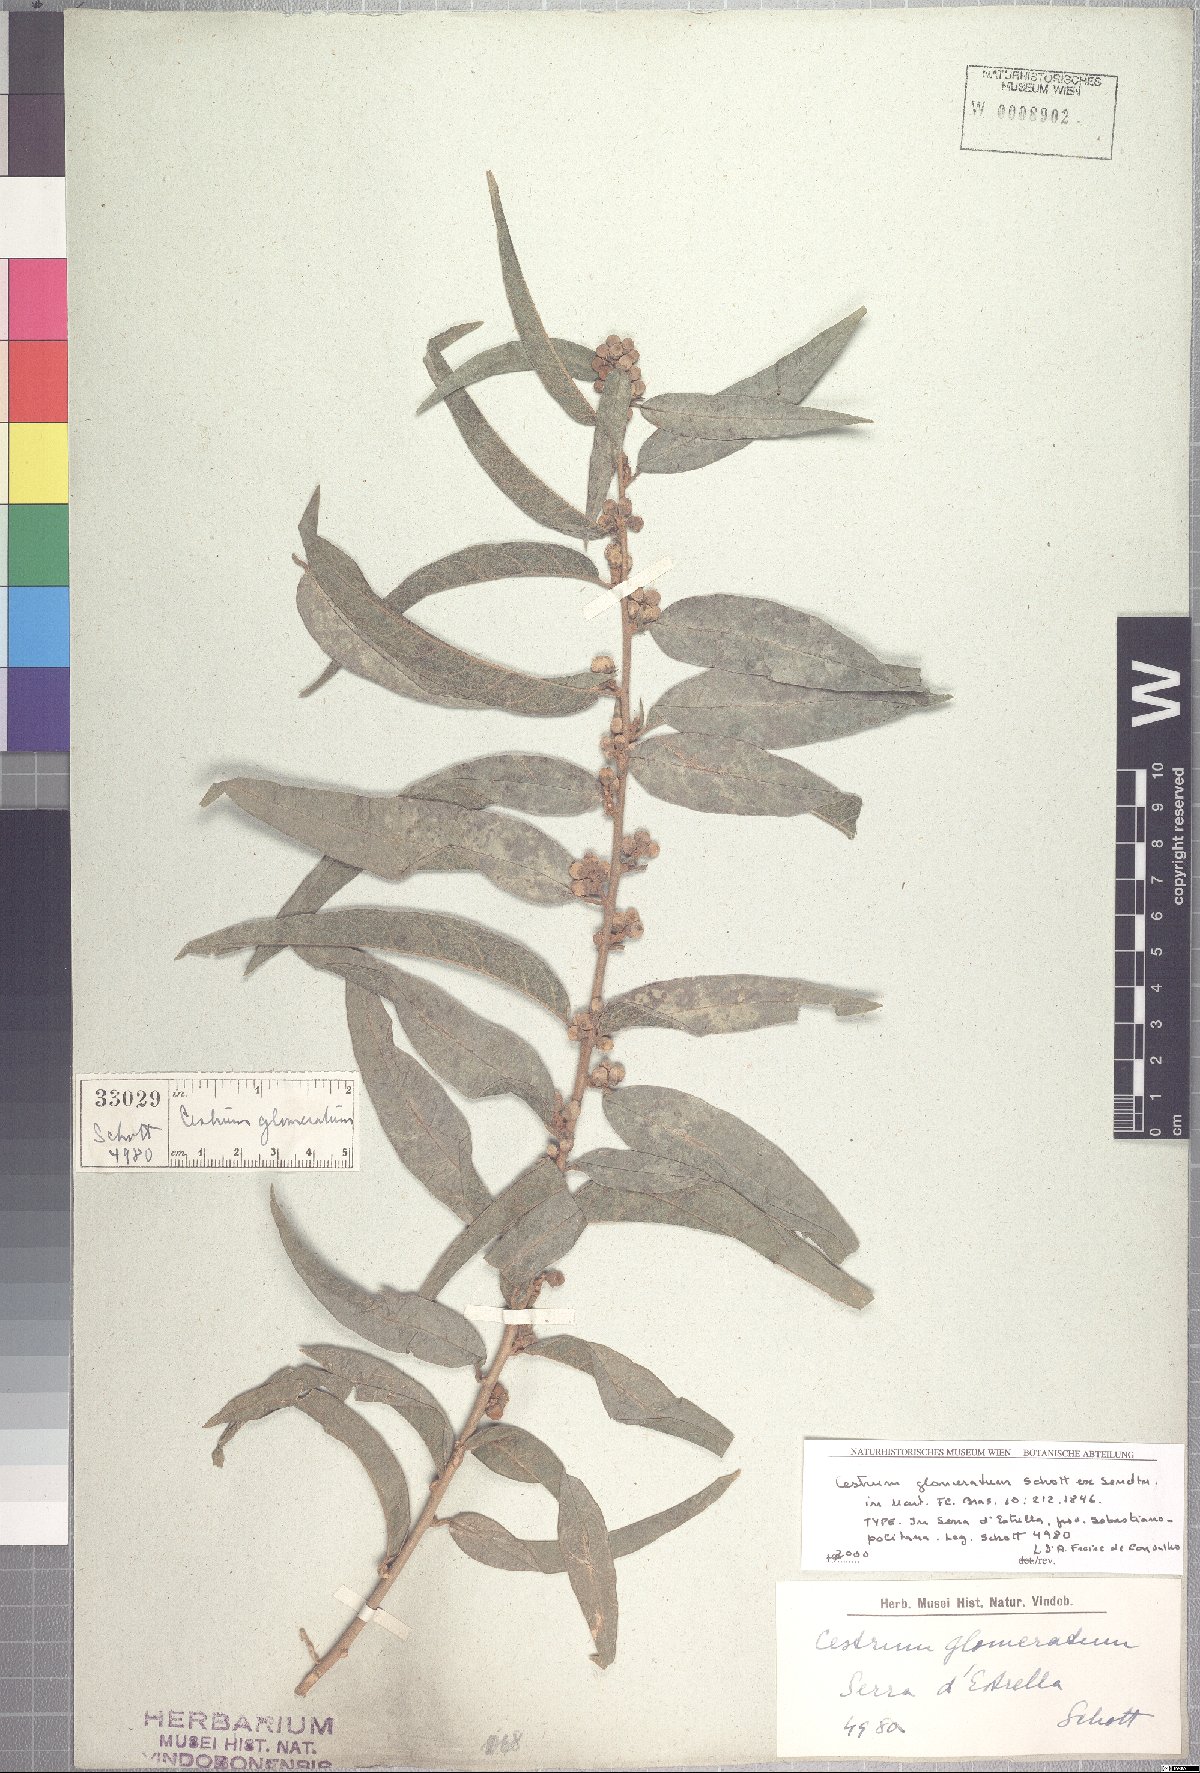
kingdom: Plantae
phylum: Tracheophyta
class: Magnoliopsida
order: Solanales
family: Solanaceae
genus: Cestrum
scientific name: Cestrum subpulverulentum
